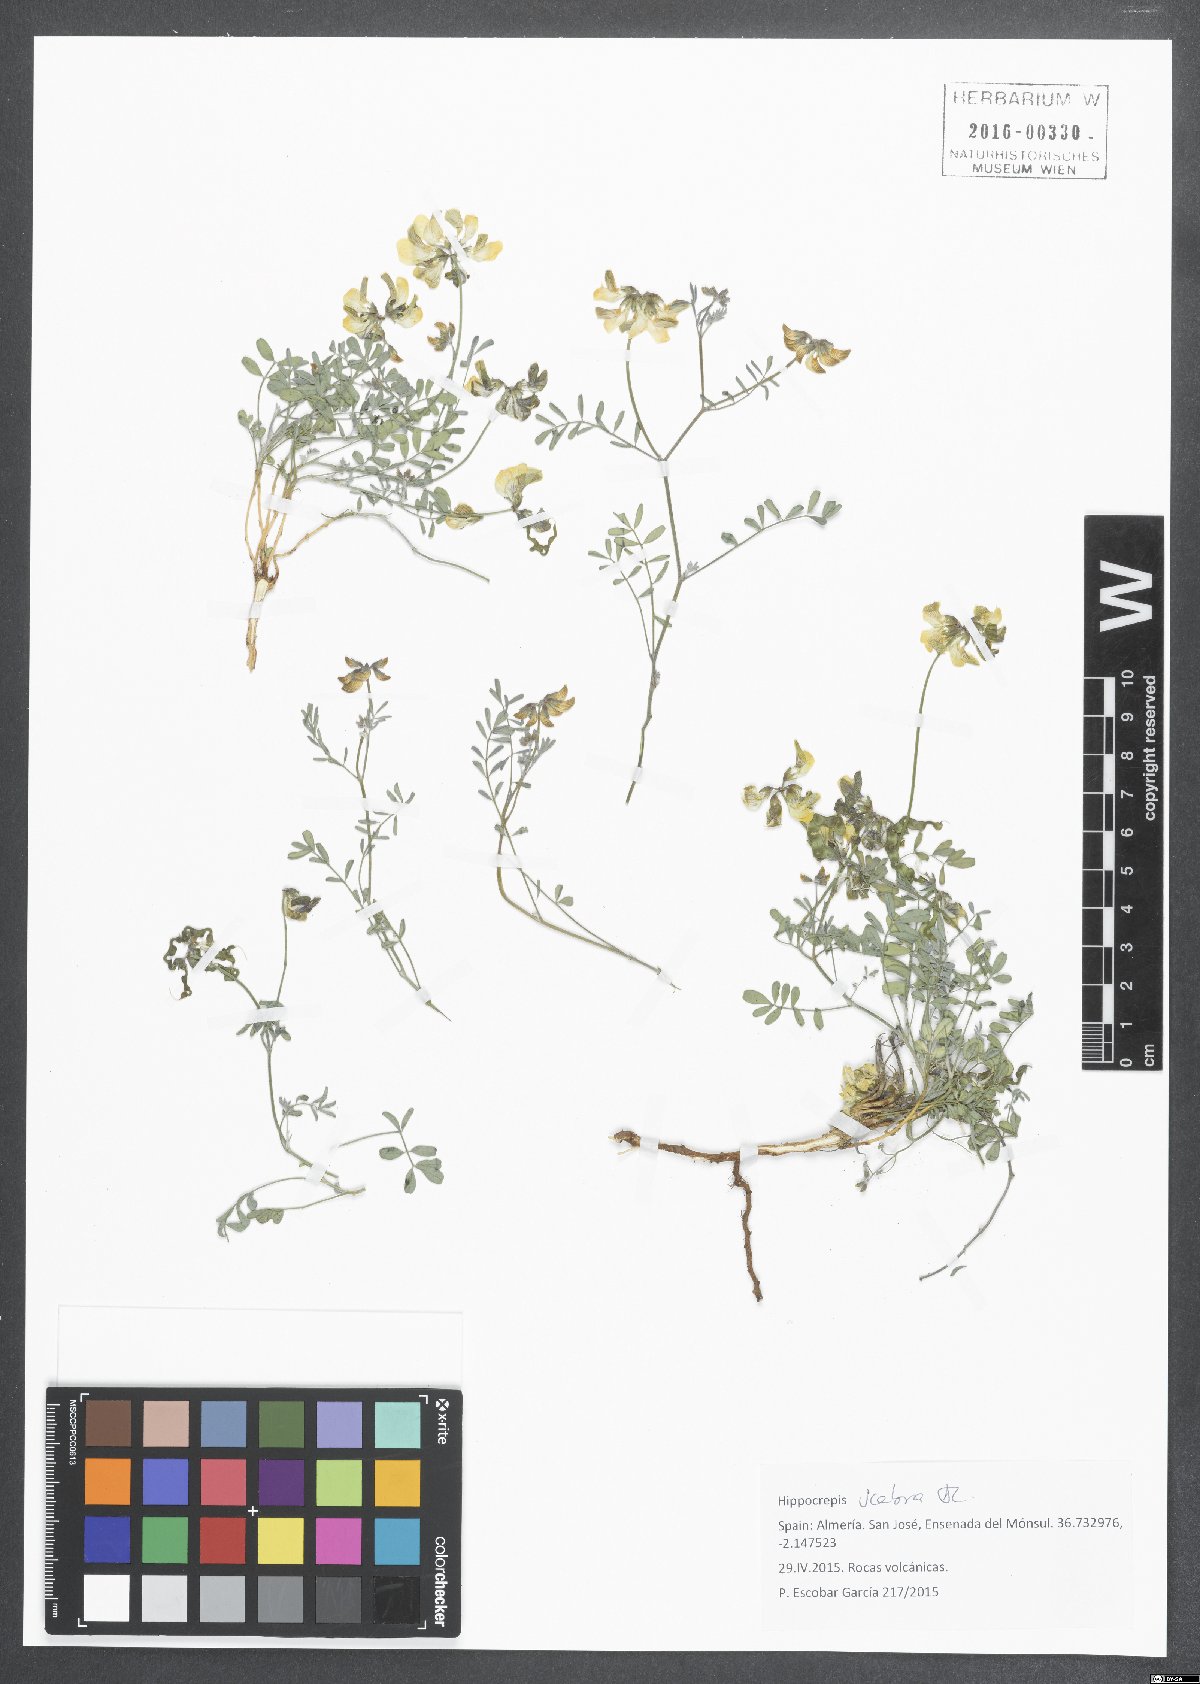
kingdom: Plantae
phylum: Tracheophyta
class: Magnoliopsida
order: Fabales
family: Fabaceae
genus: Hippocrepis
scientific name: Hippocrepis scabra
